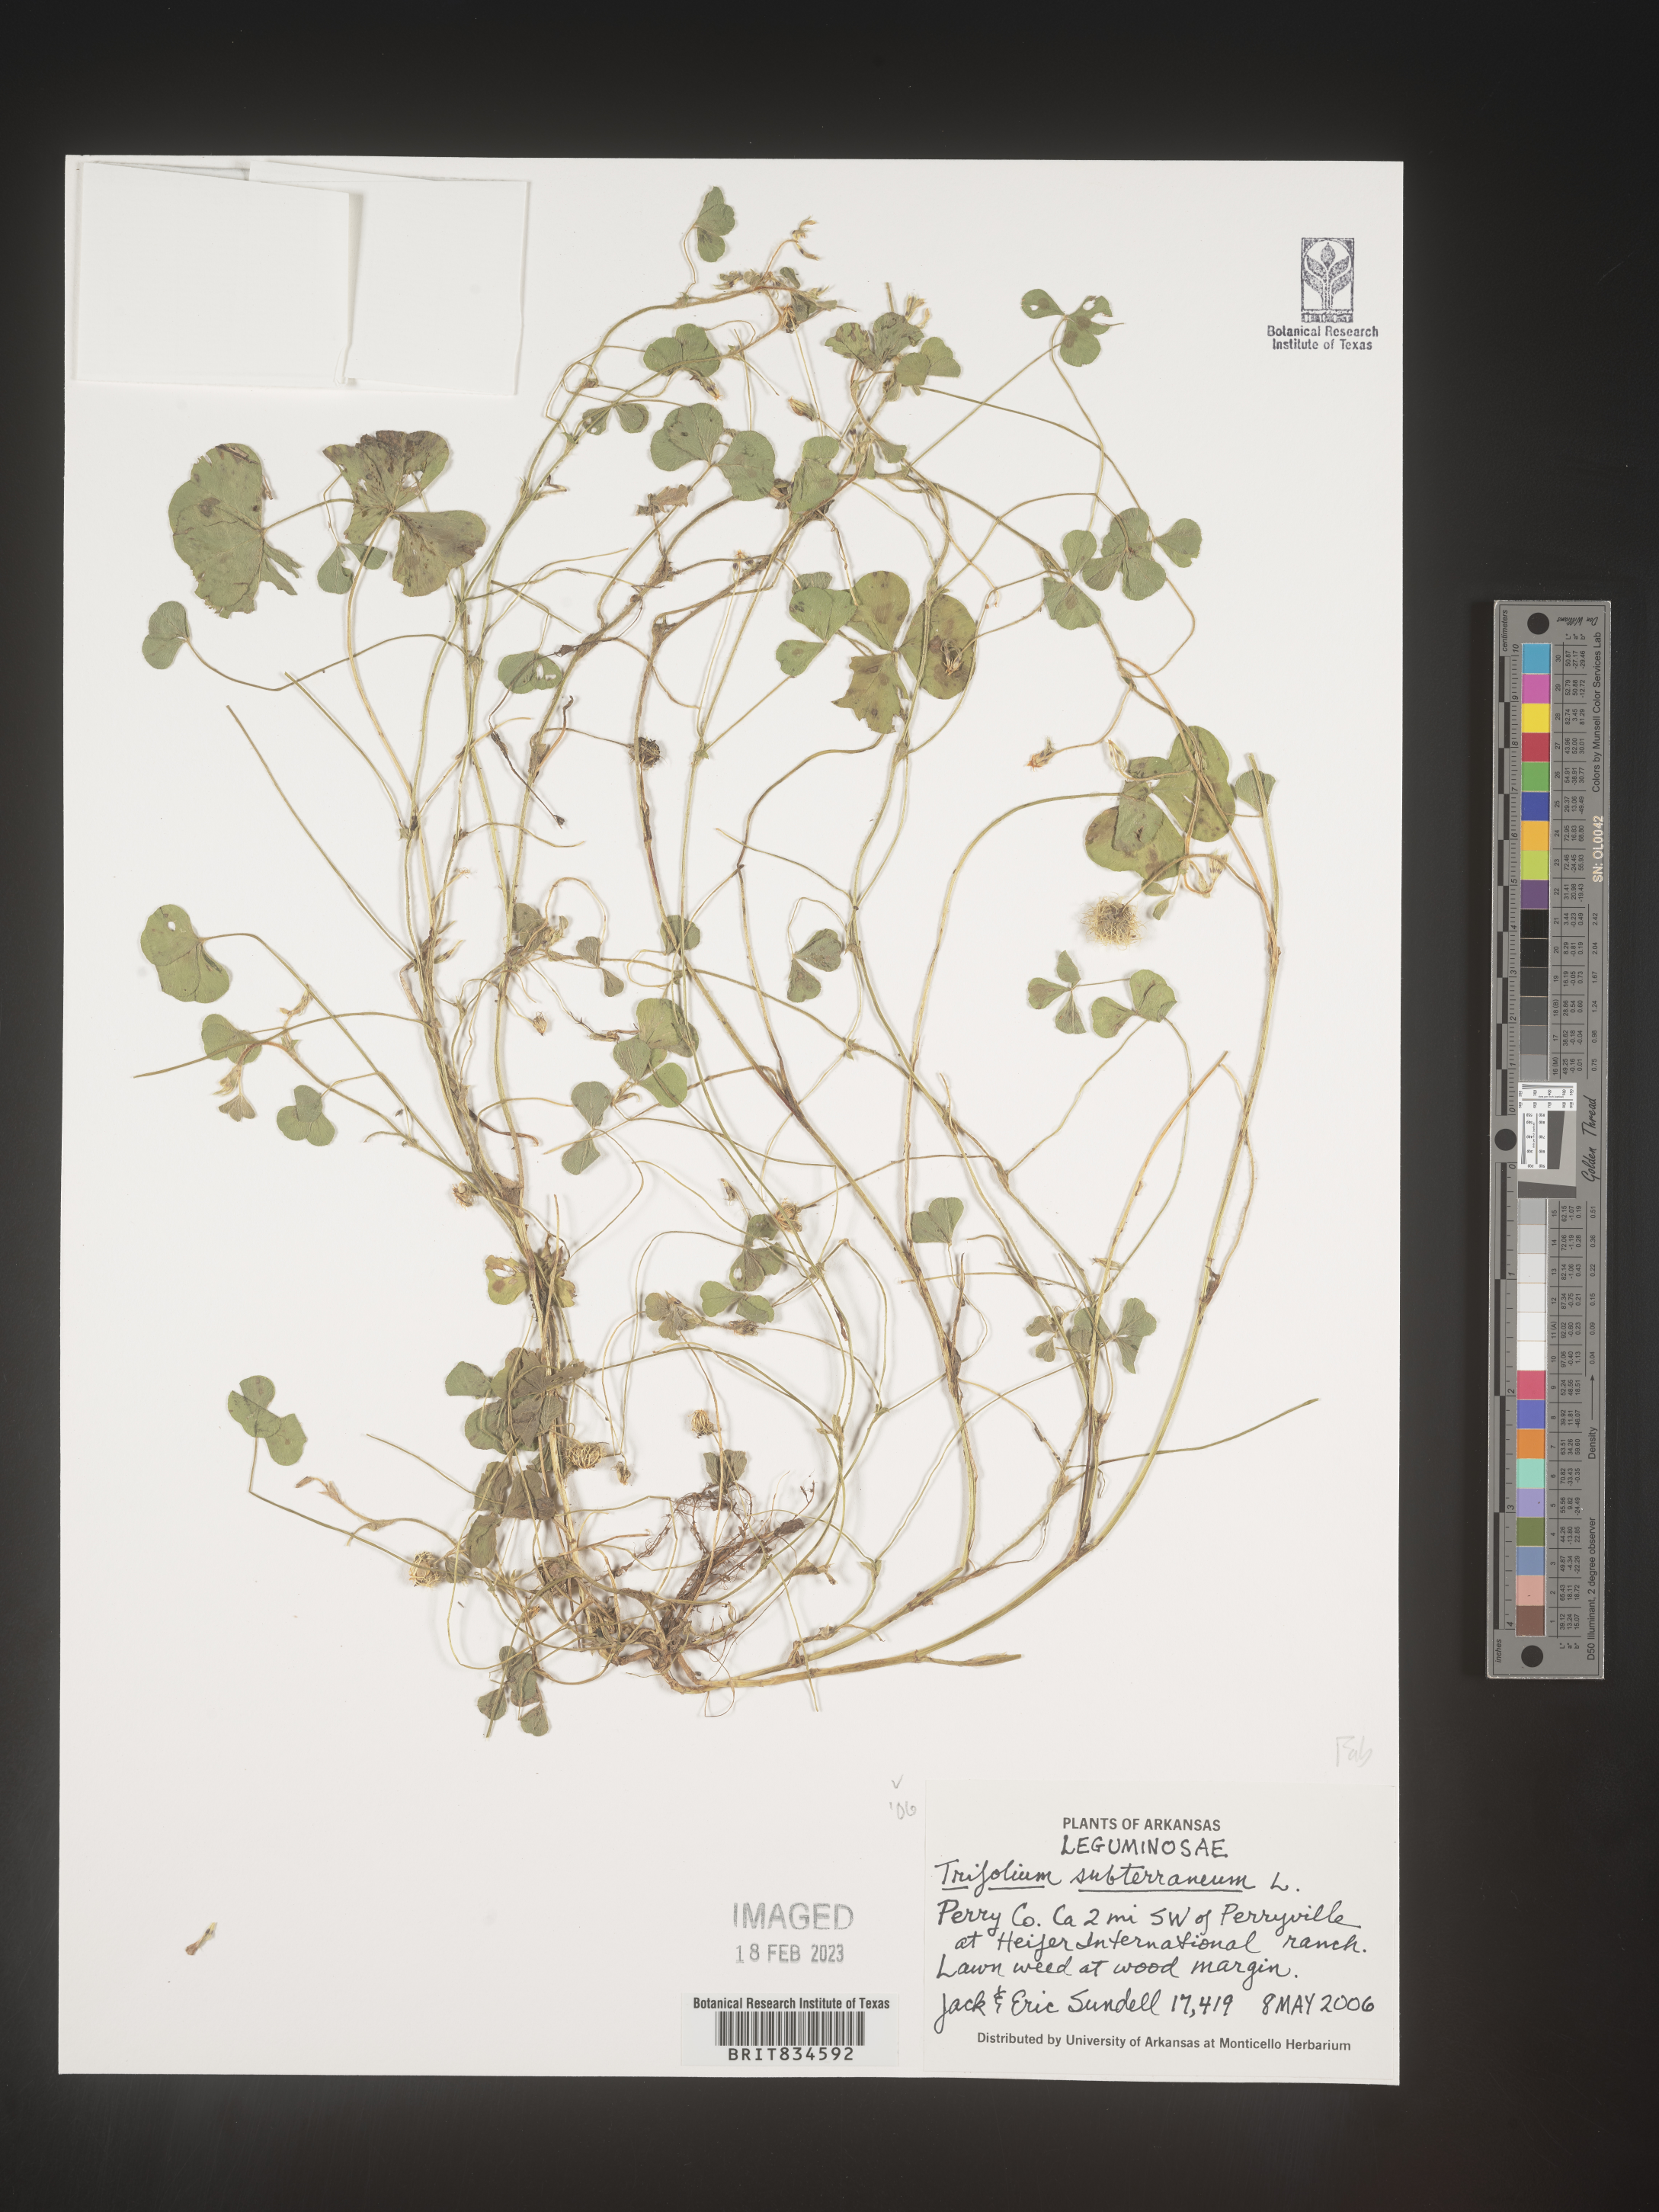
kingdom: Plantae
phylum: Tracheophyta
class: Magnoliopsida
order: Fabales
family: Fabaceae
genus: Trifolium
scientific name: Trifolium
